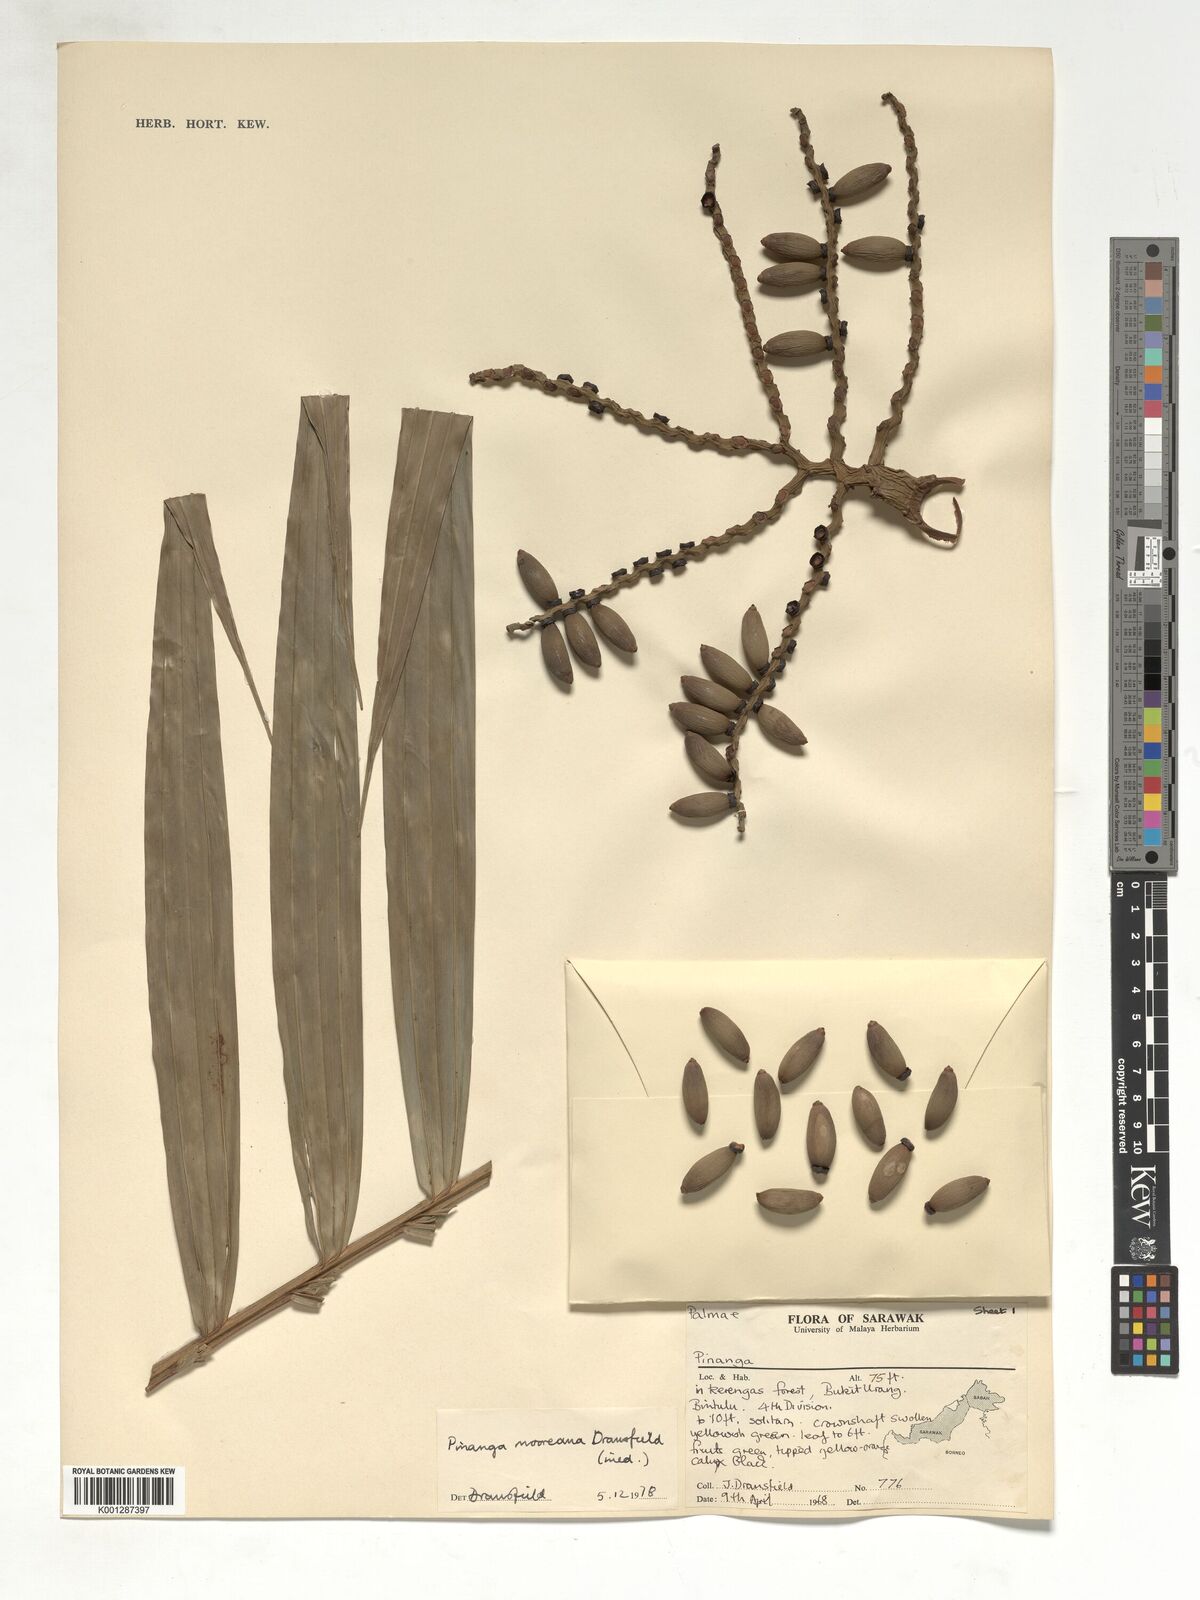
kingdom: Plantae
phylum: Tracheophyta
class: Liliopsida
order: Arecales
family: Arecaceae
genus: Pinanga
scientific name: Pinanga mooreana
